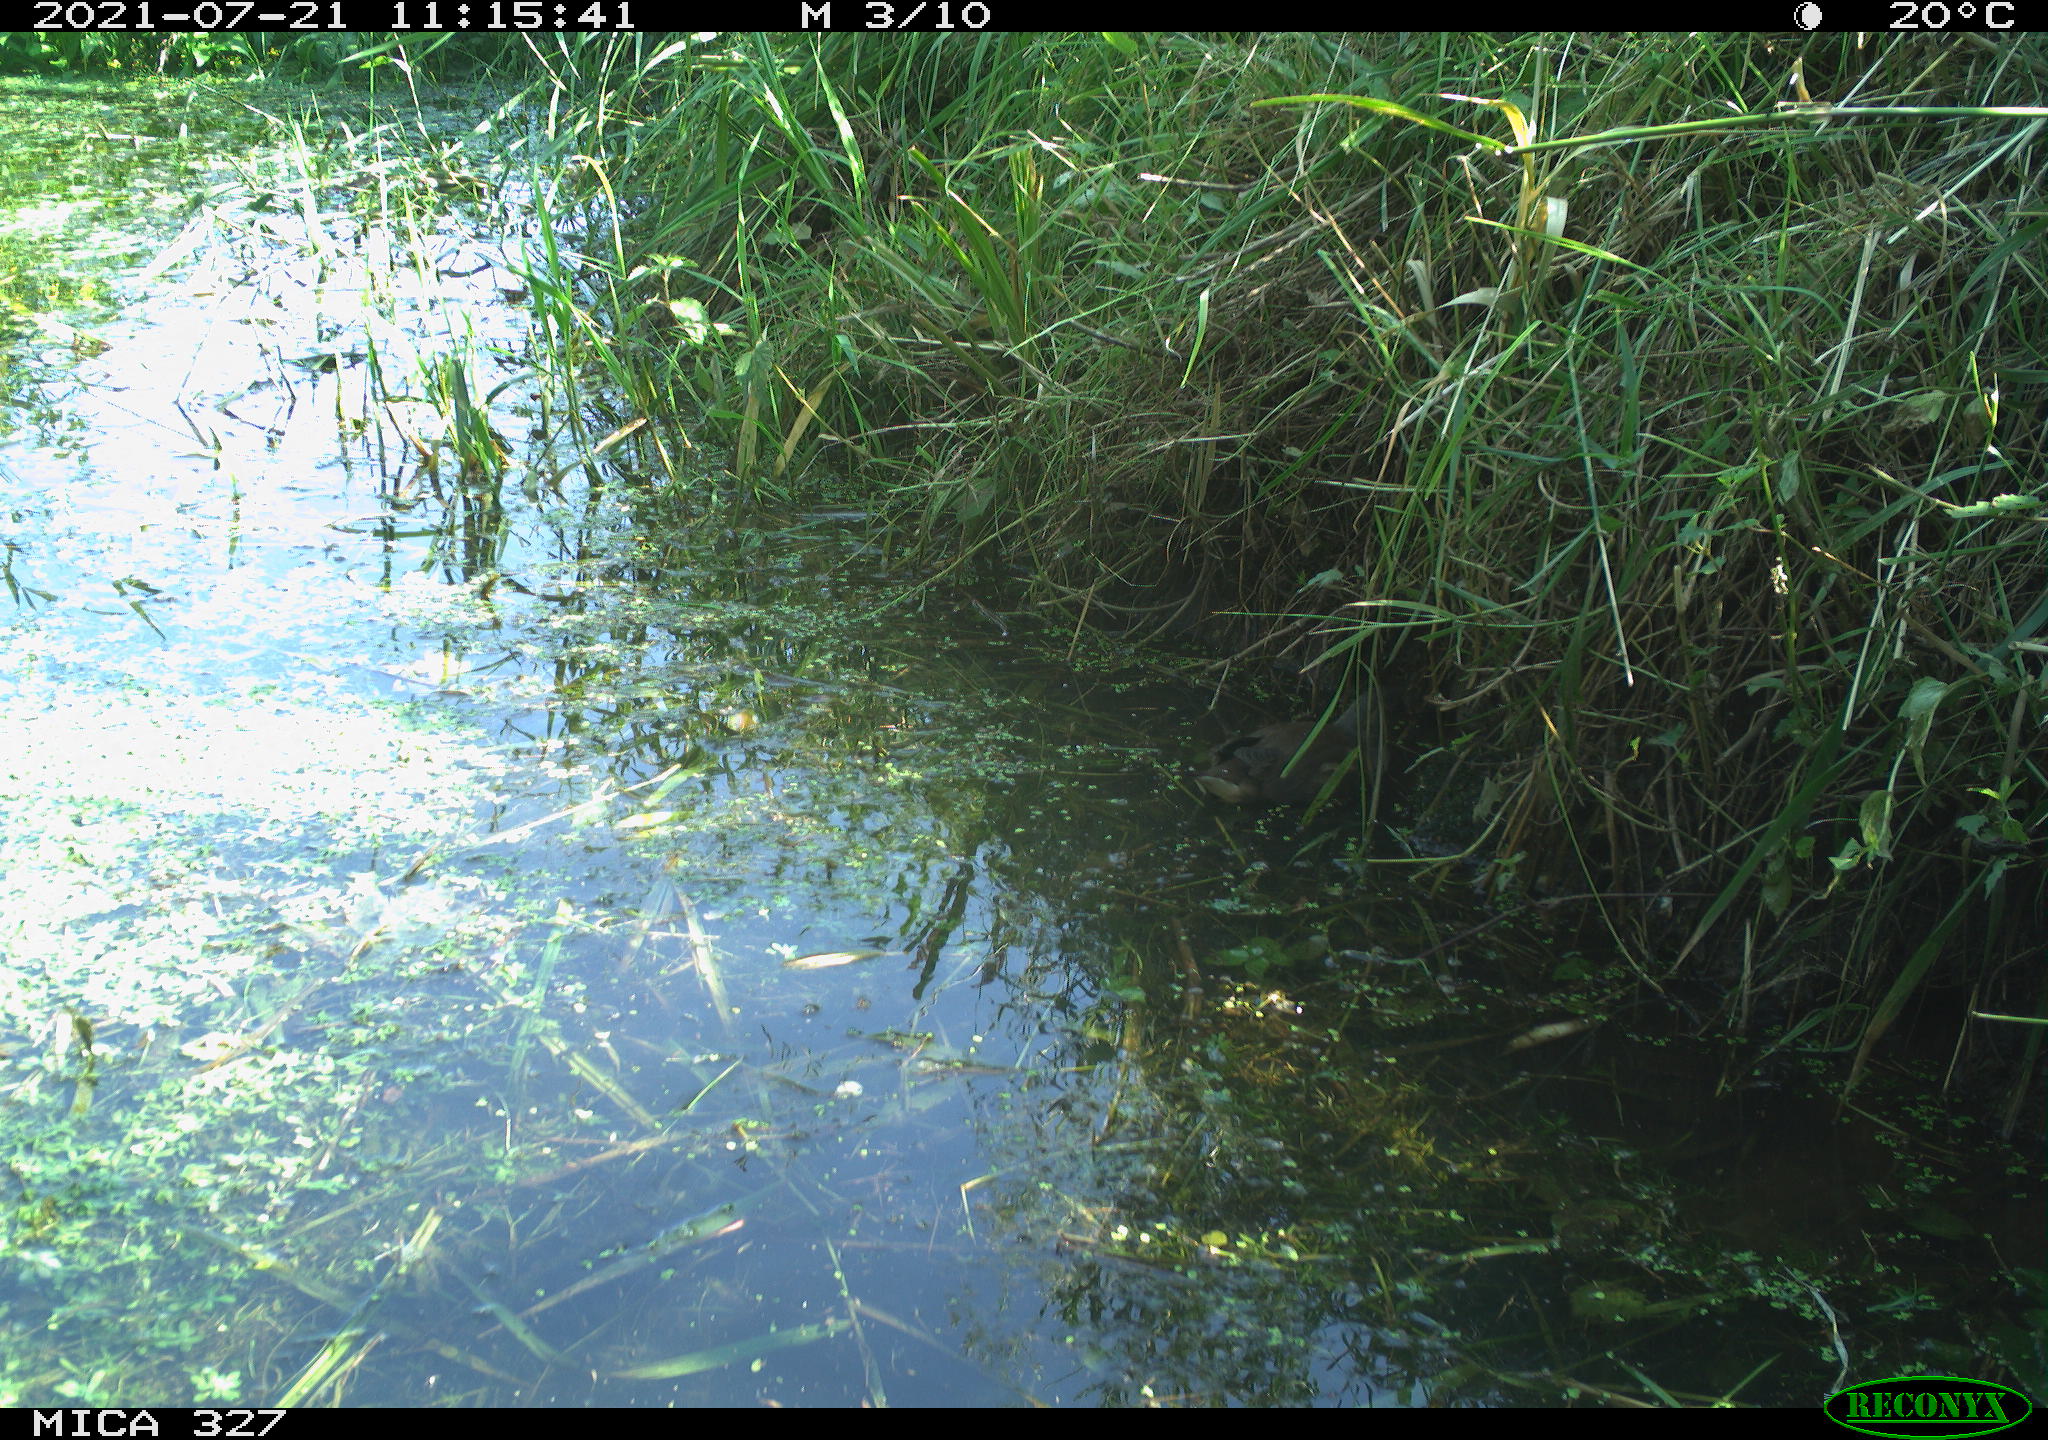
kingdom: Animalia
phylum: Chordata
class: Aves
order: Gruiformes
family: Rallidae
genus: Gallinula
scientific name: Gallinula chloropus
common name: Common moorhen
